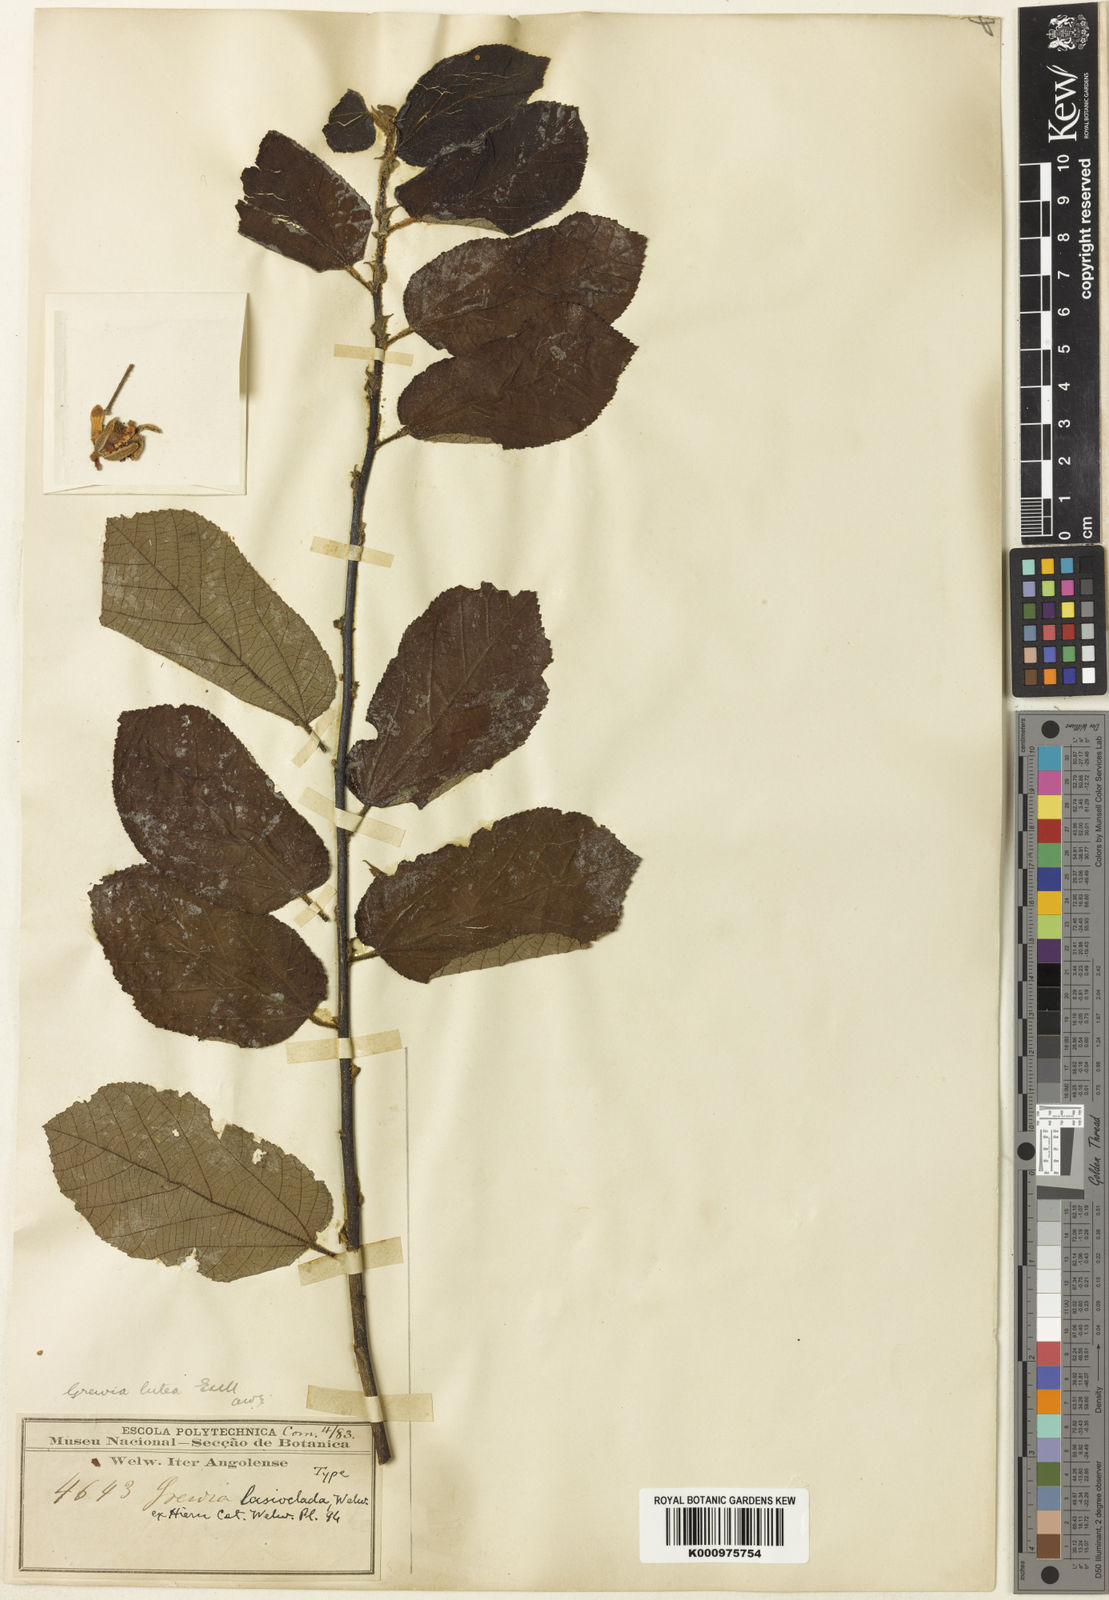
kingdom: Plantae
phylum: Tracheophyta
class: Magnoliopsida
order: Malvales
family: Malvaceae
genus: Grewia
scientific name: Grewia lutea
